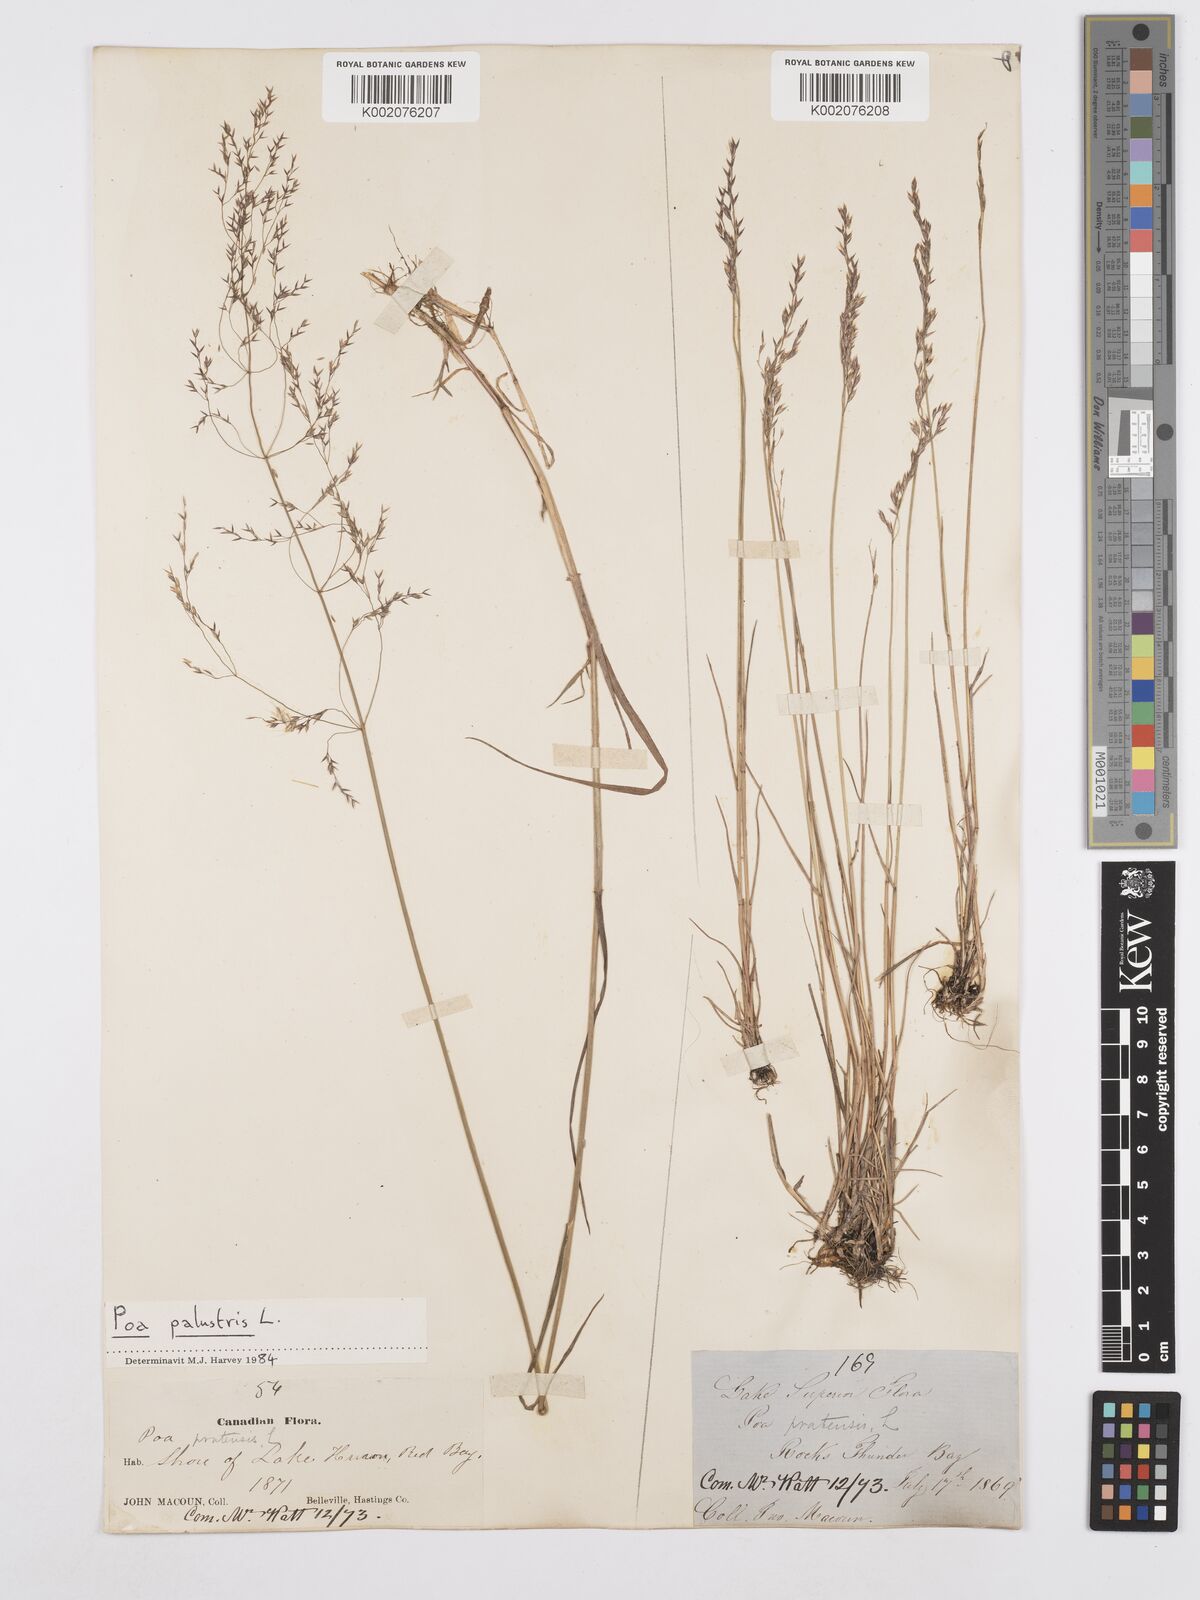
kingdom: Plantae
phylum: Tracheophyta
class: Liliopsida
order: Poales
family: Poaceae
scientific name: Poaceae
